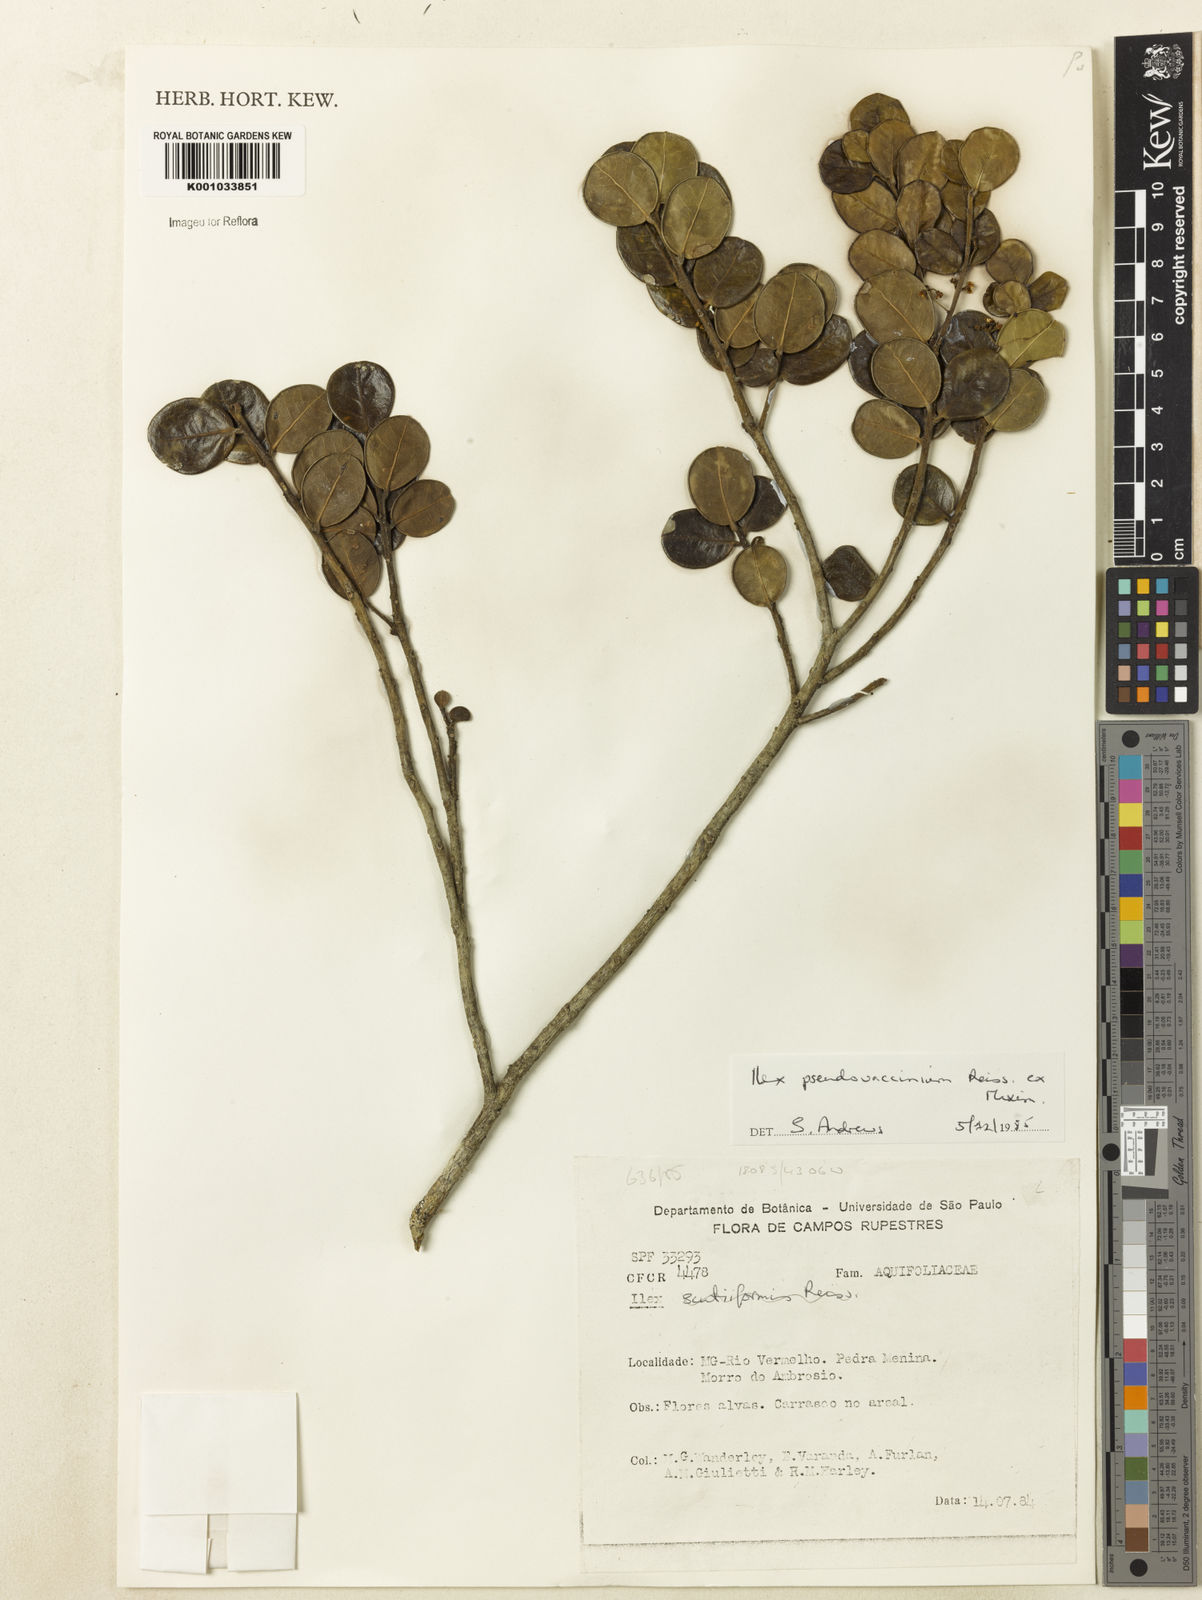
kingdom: Plantae
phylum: Tracheophyta
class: Magnoliopsida
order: Aquifoliales
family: Aquifoliaceae
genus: Ilex
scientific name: Ilex pseudovaccinium
